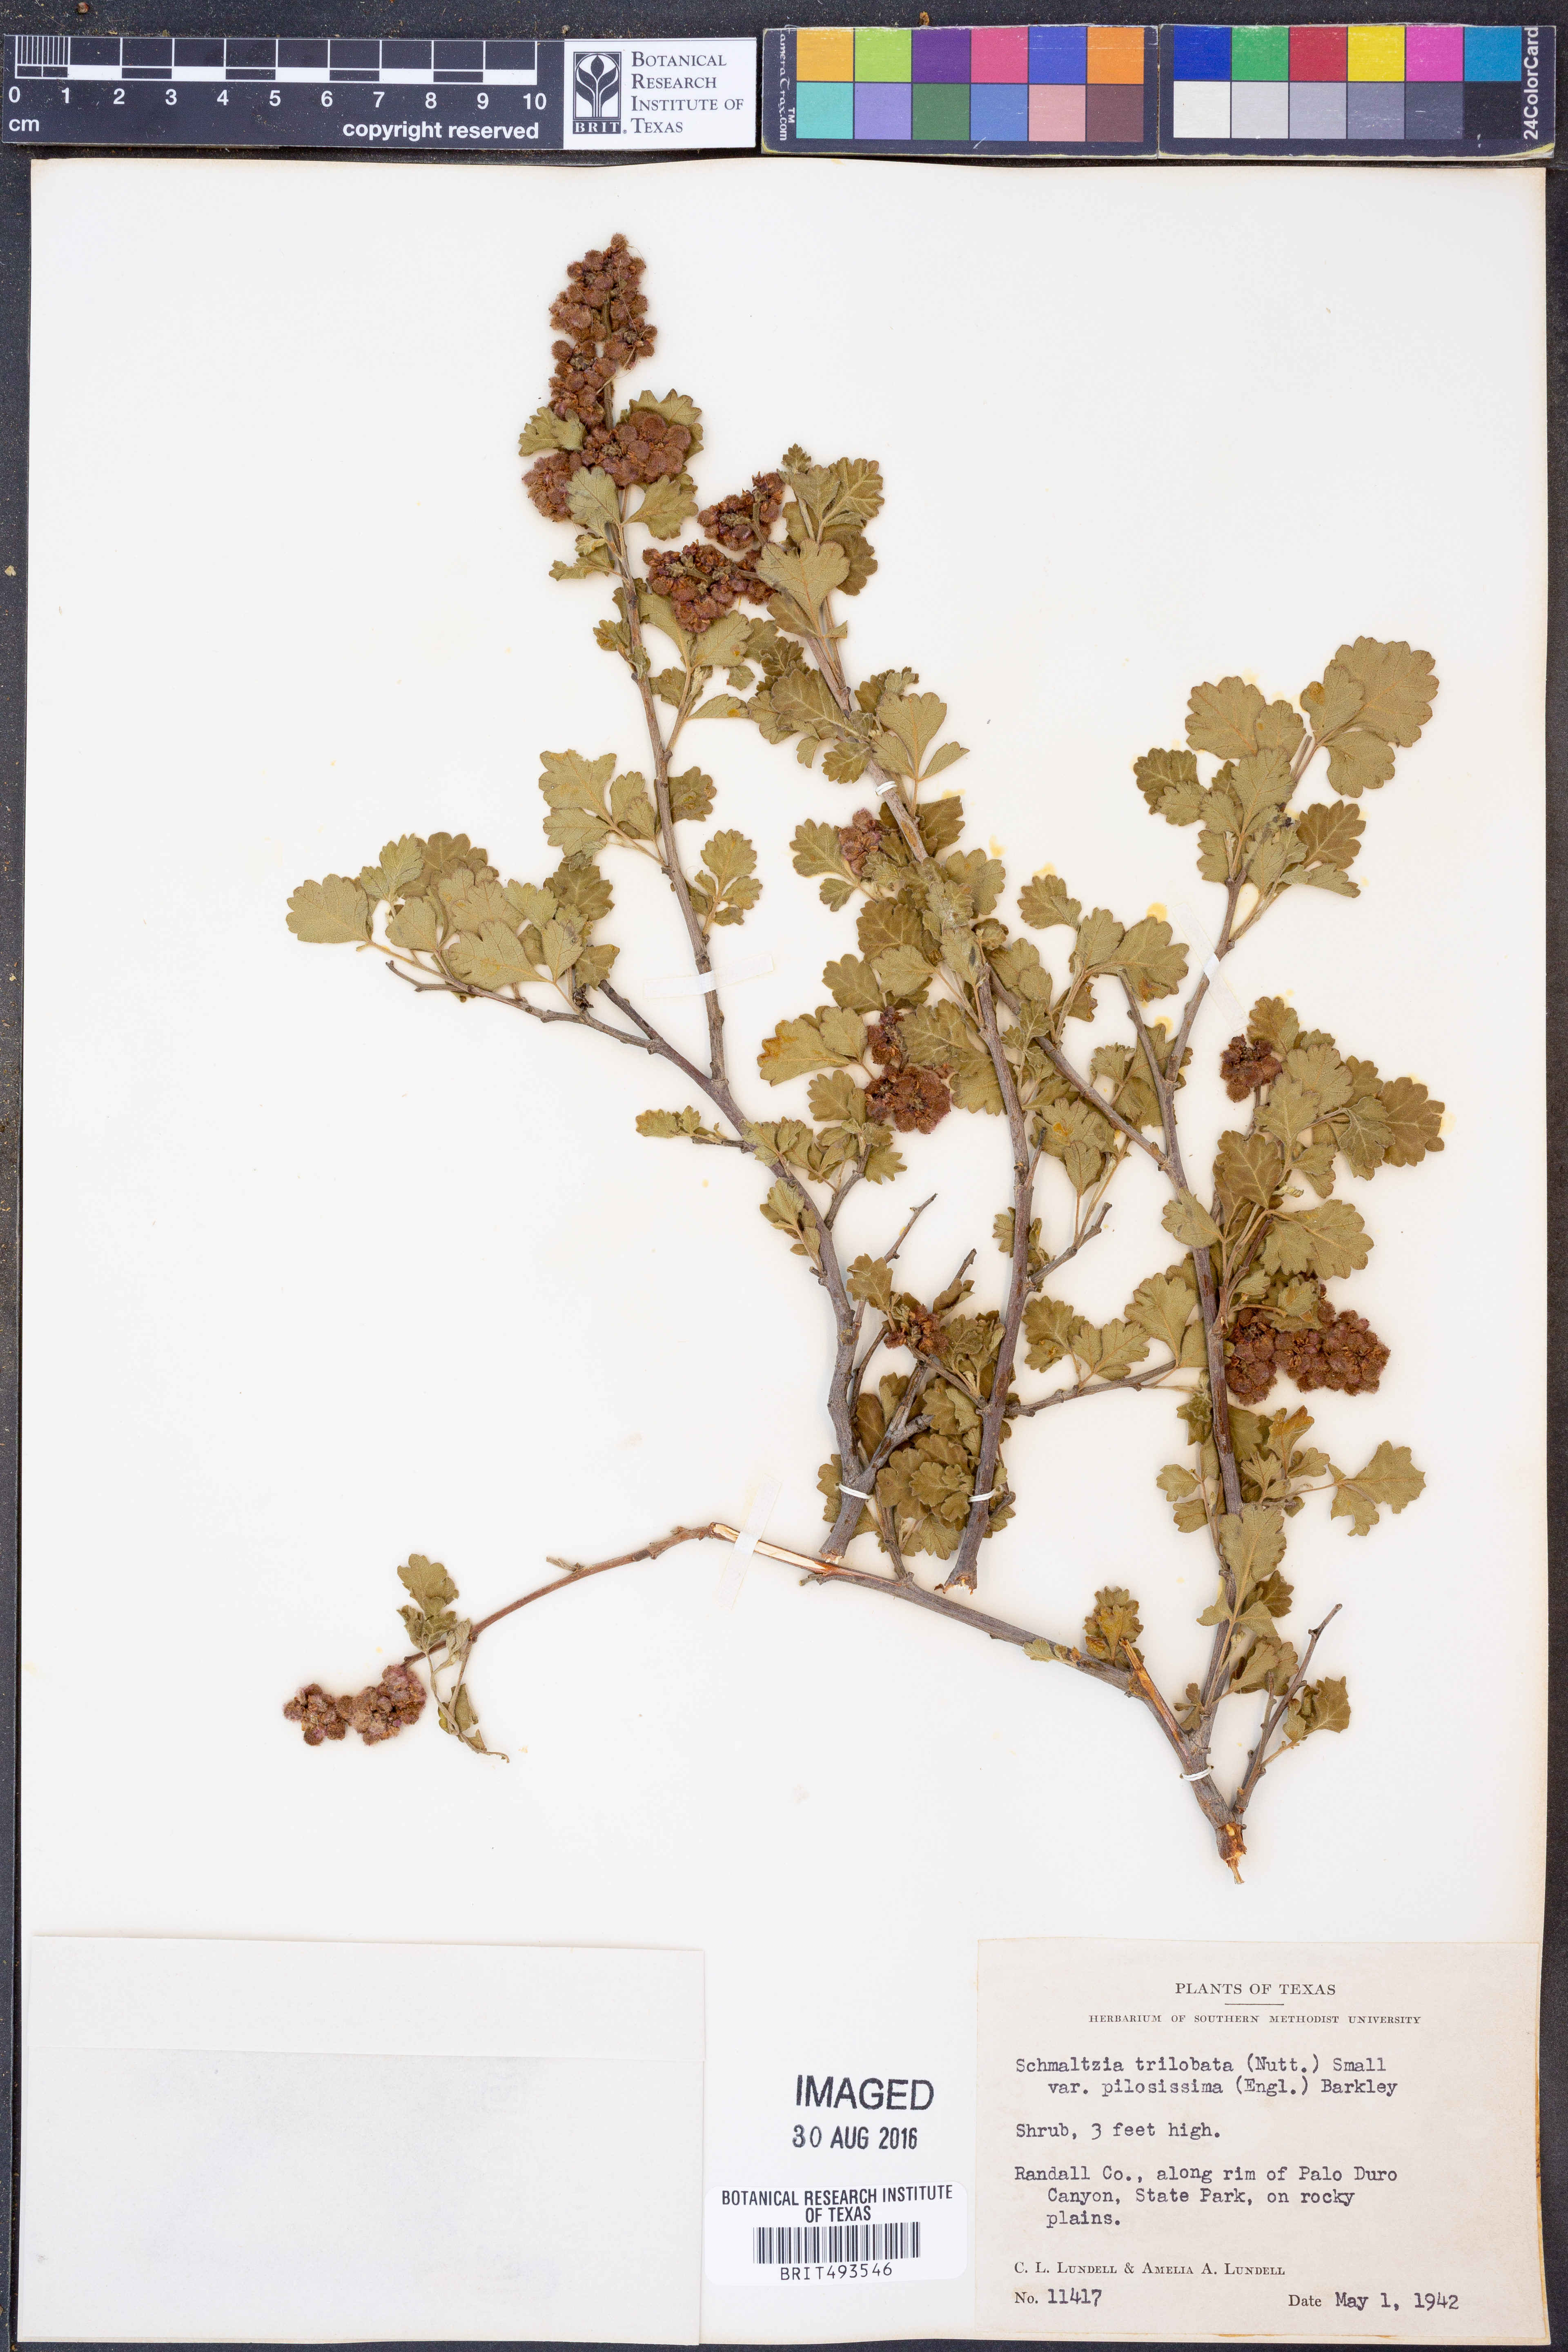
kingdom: Plantae
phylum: Tracheophyta
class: Magnoliopsida
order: Sapindales
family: Anacardiaceae
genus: Rhus
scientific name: Rhus trilobata
